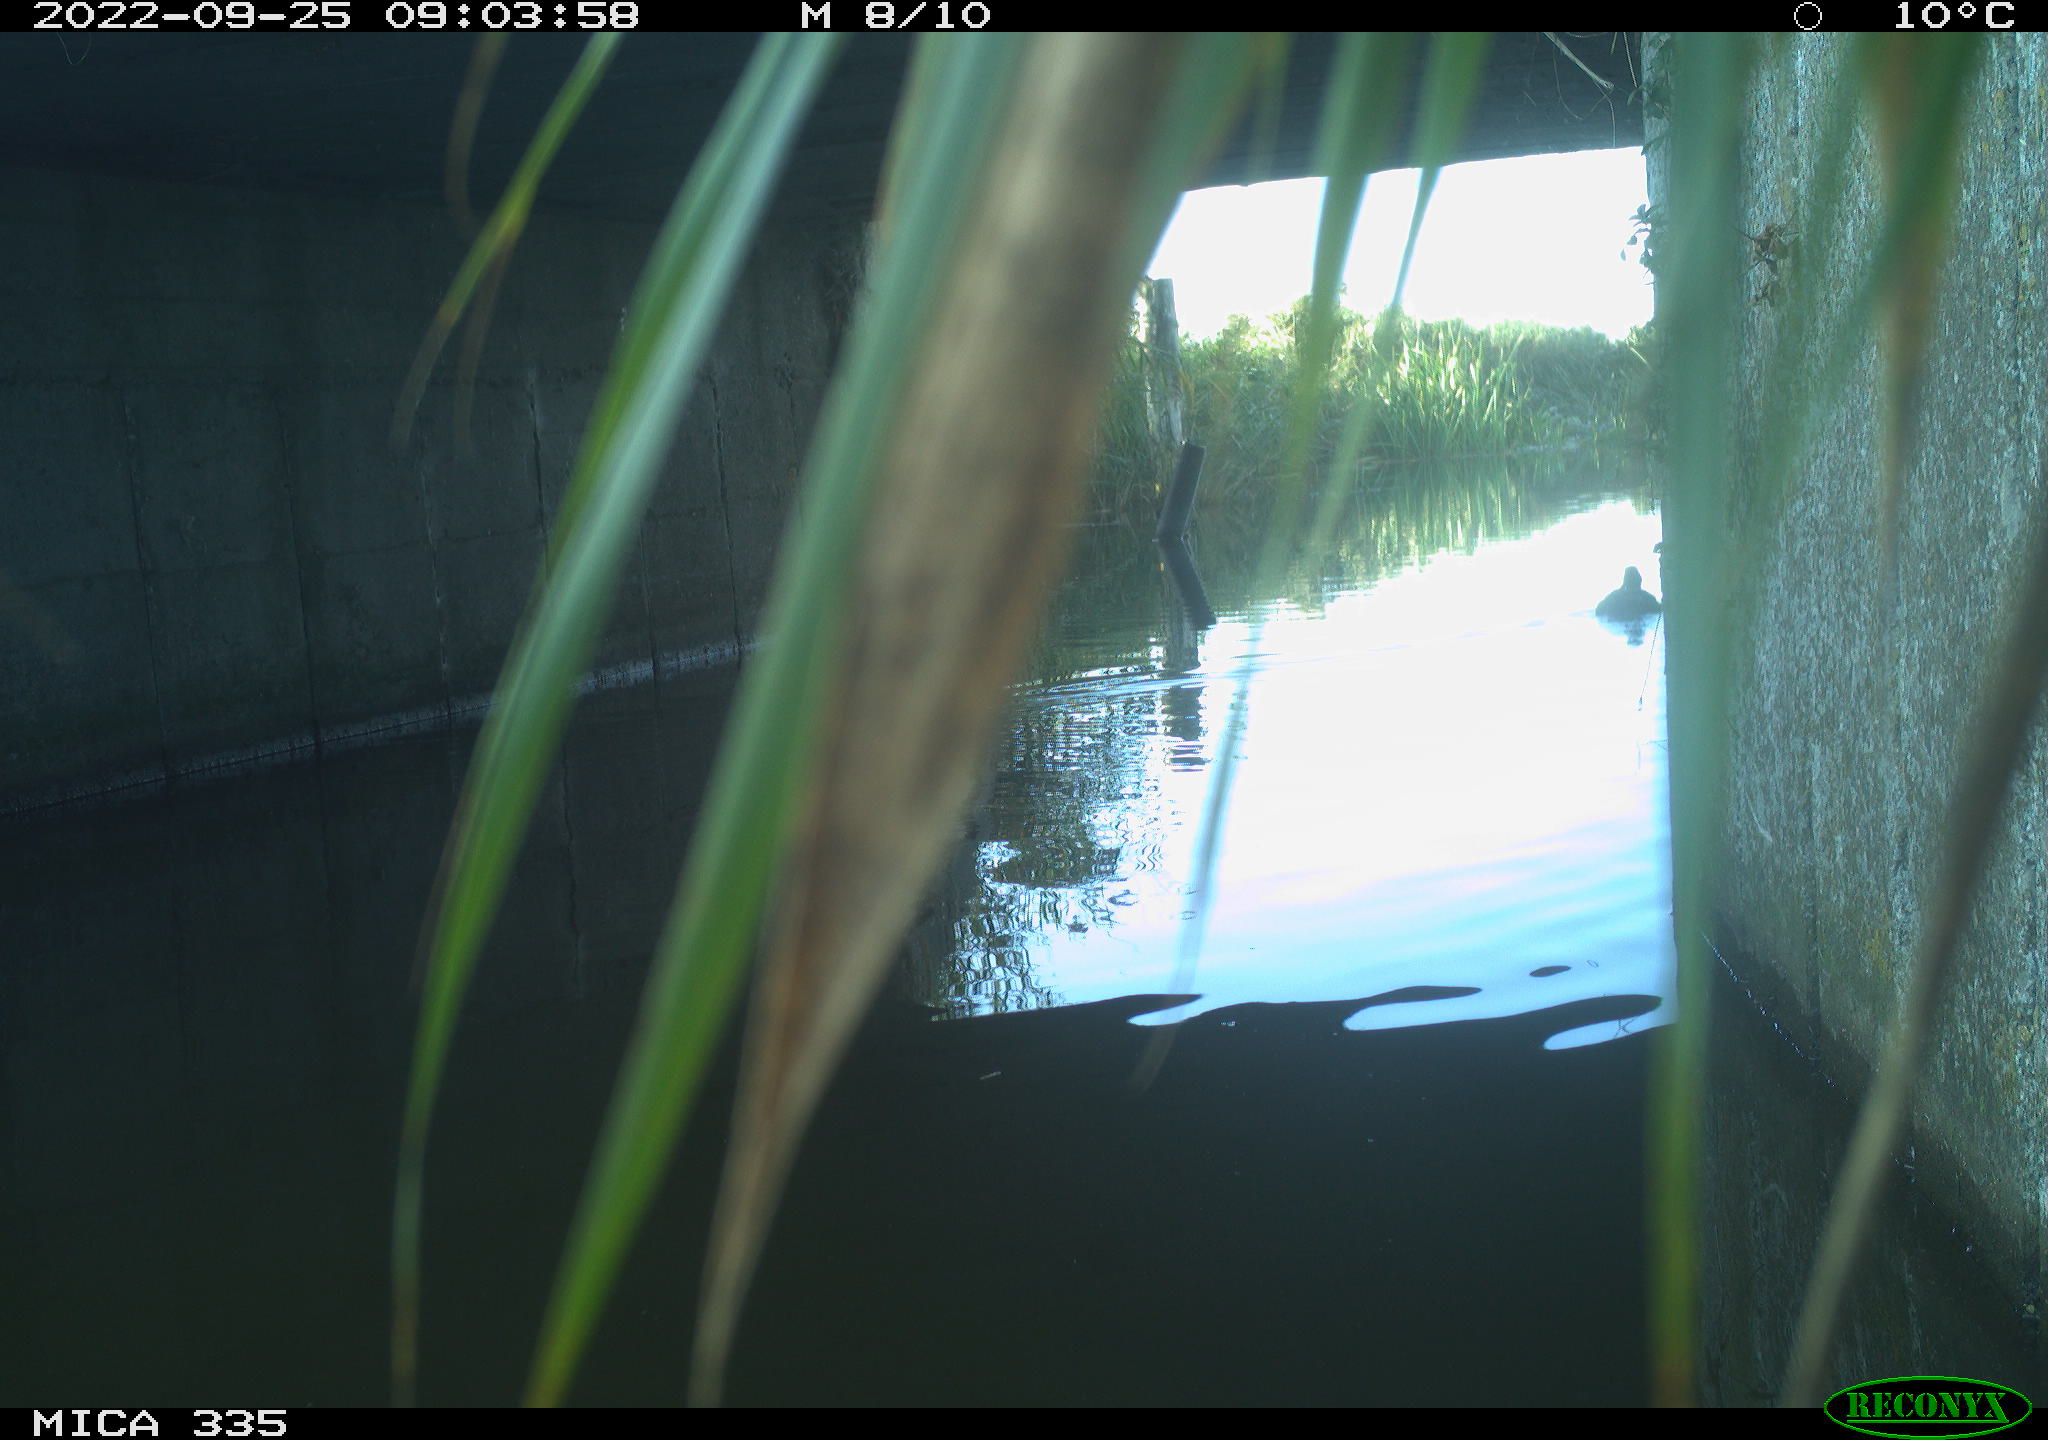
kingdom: Animalia
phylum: Chordata
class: Aves
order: Anseriformes
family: Anatidae
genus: Anas
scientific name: Anas platyrhynchos
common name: Mallard
